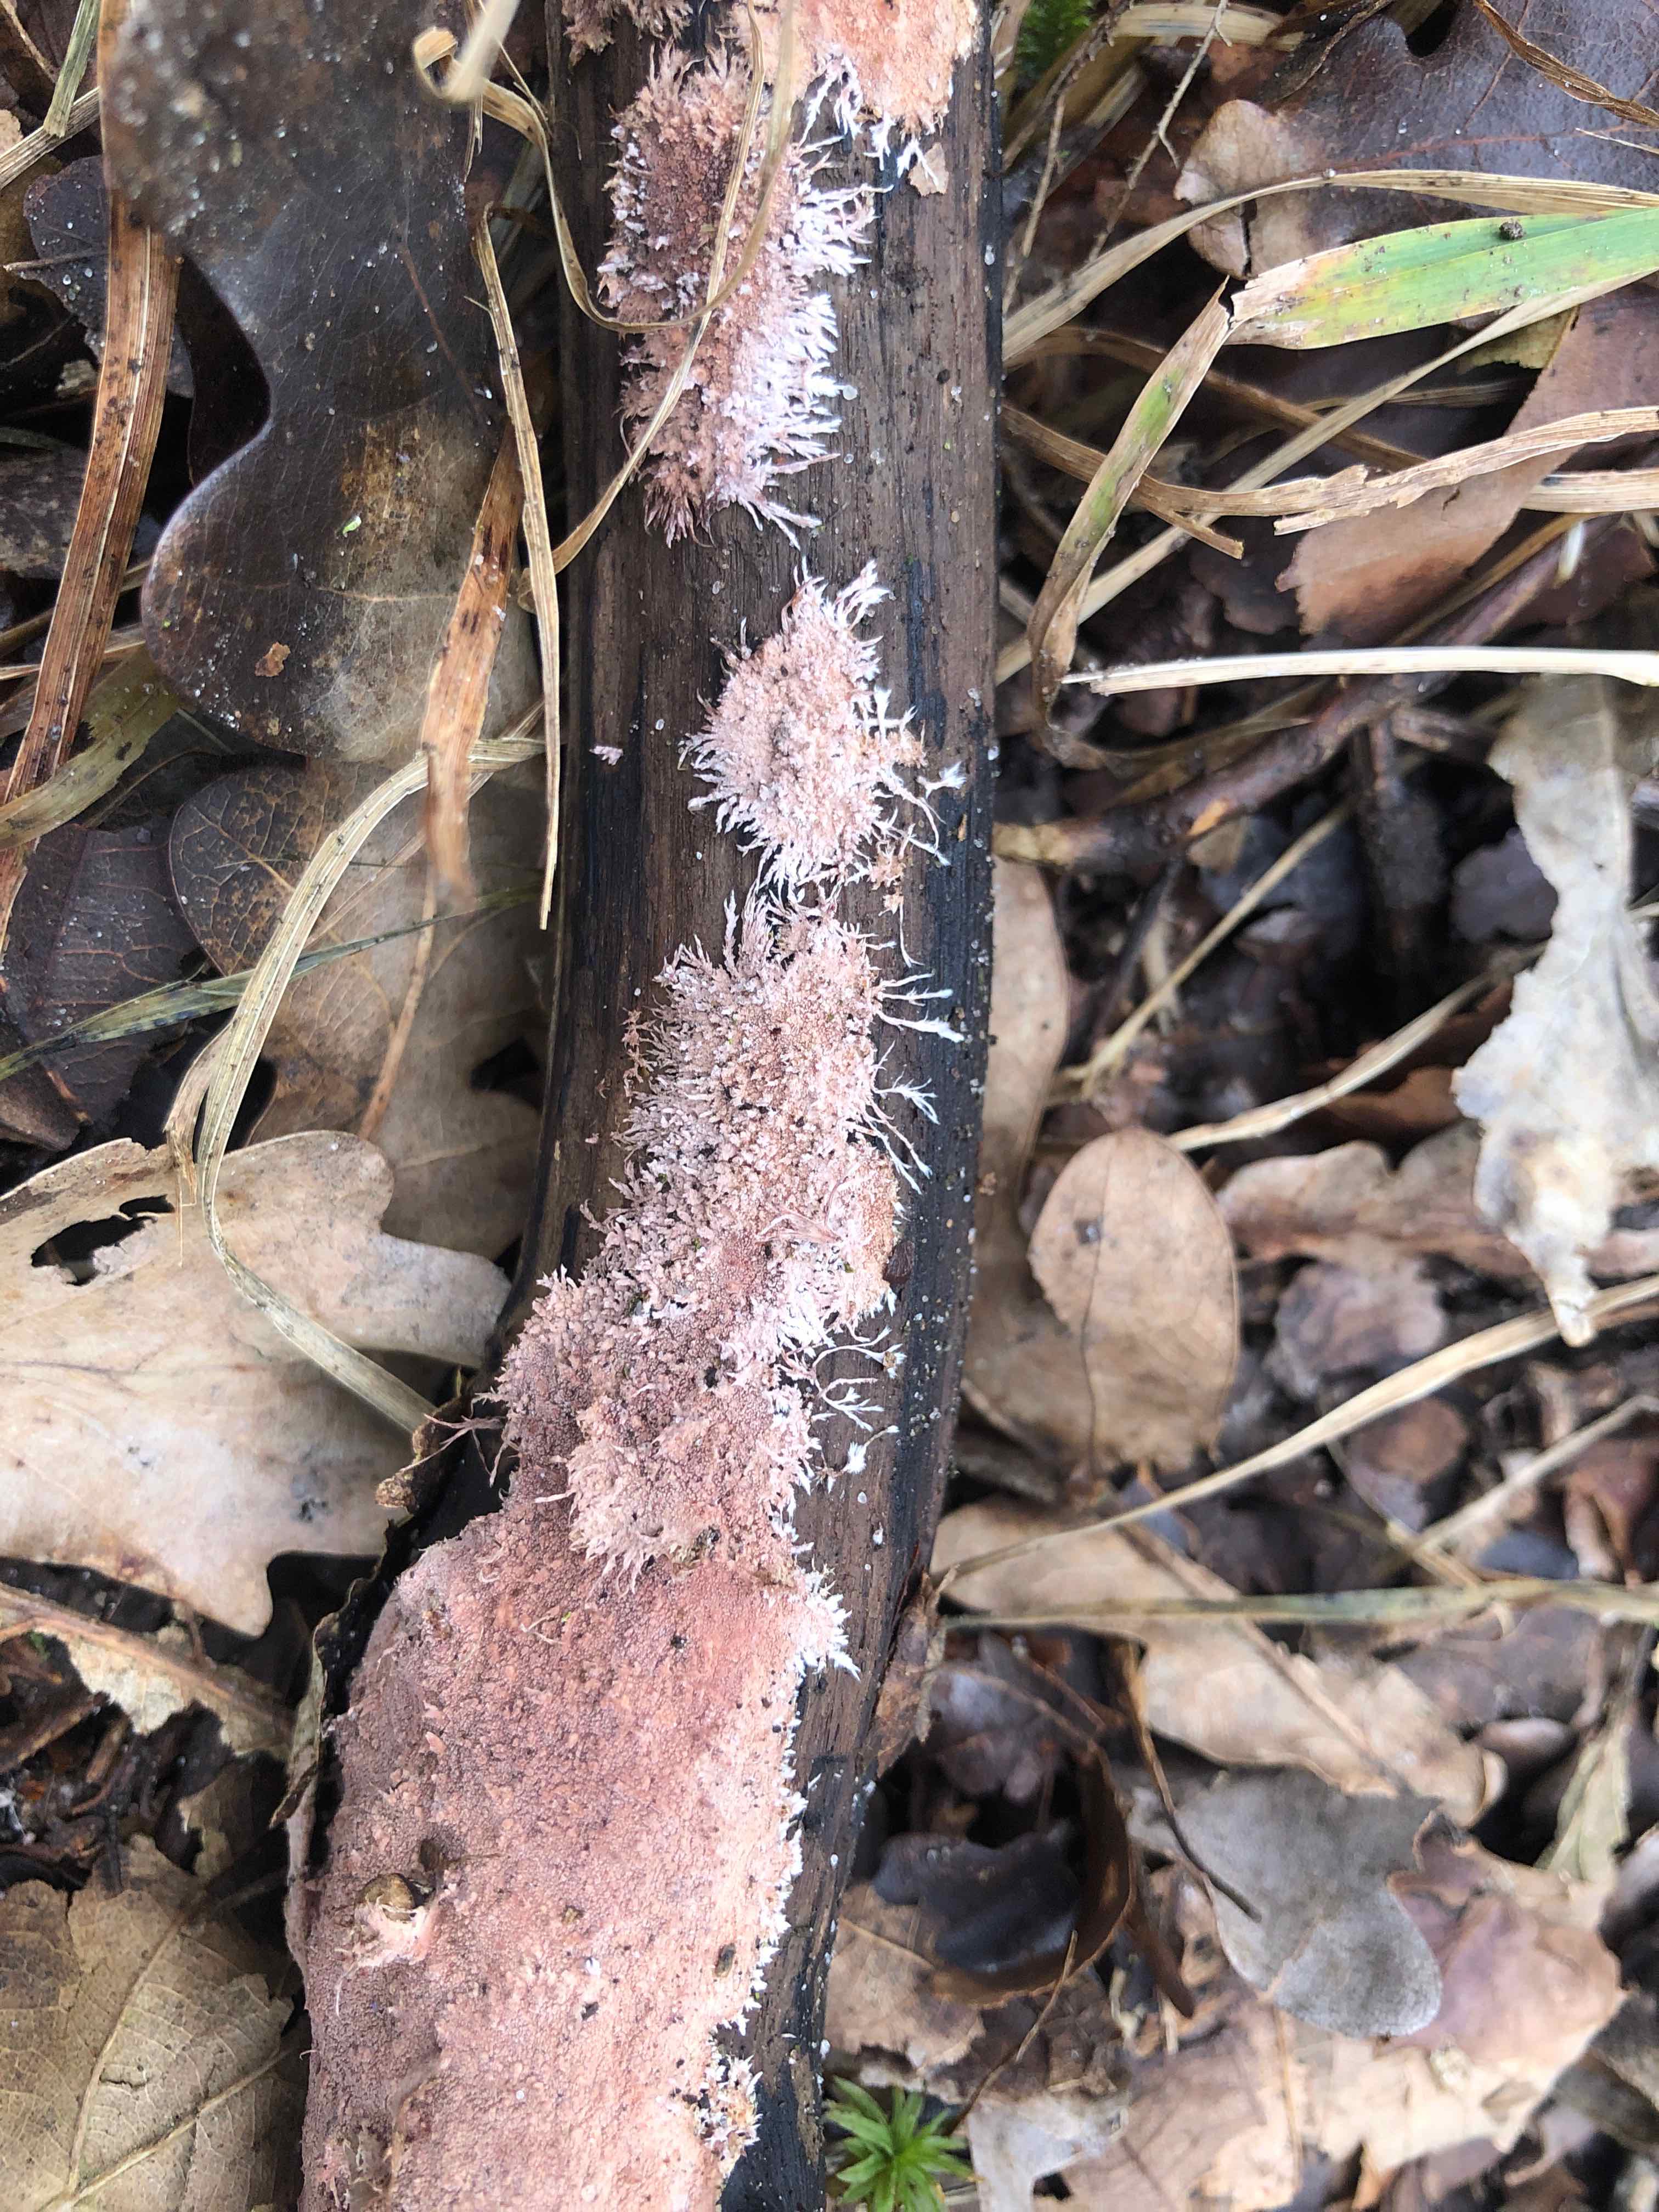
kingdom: Fungi
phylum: Basidiomycota
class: Agaricomycetes
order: Polyporales
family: Steccherinaceae
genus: Steccherinum
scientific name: Steccherinum fimbriatum
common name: trådet skønpig
